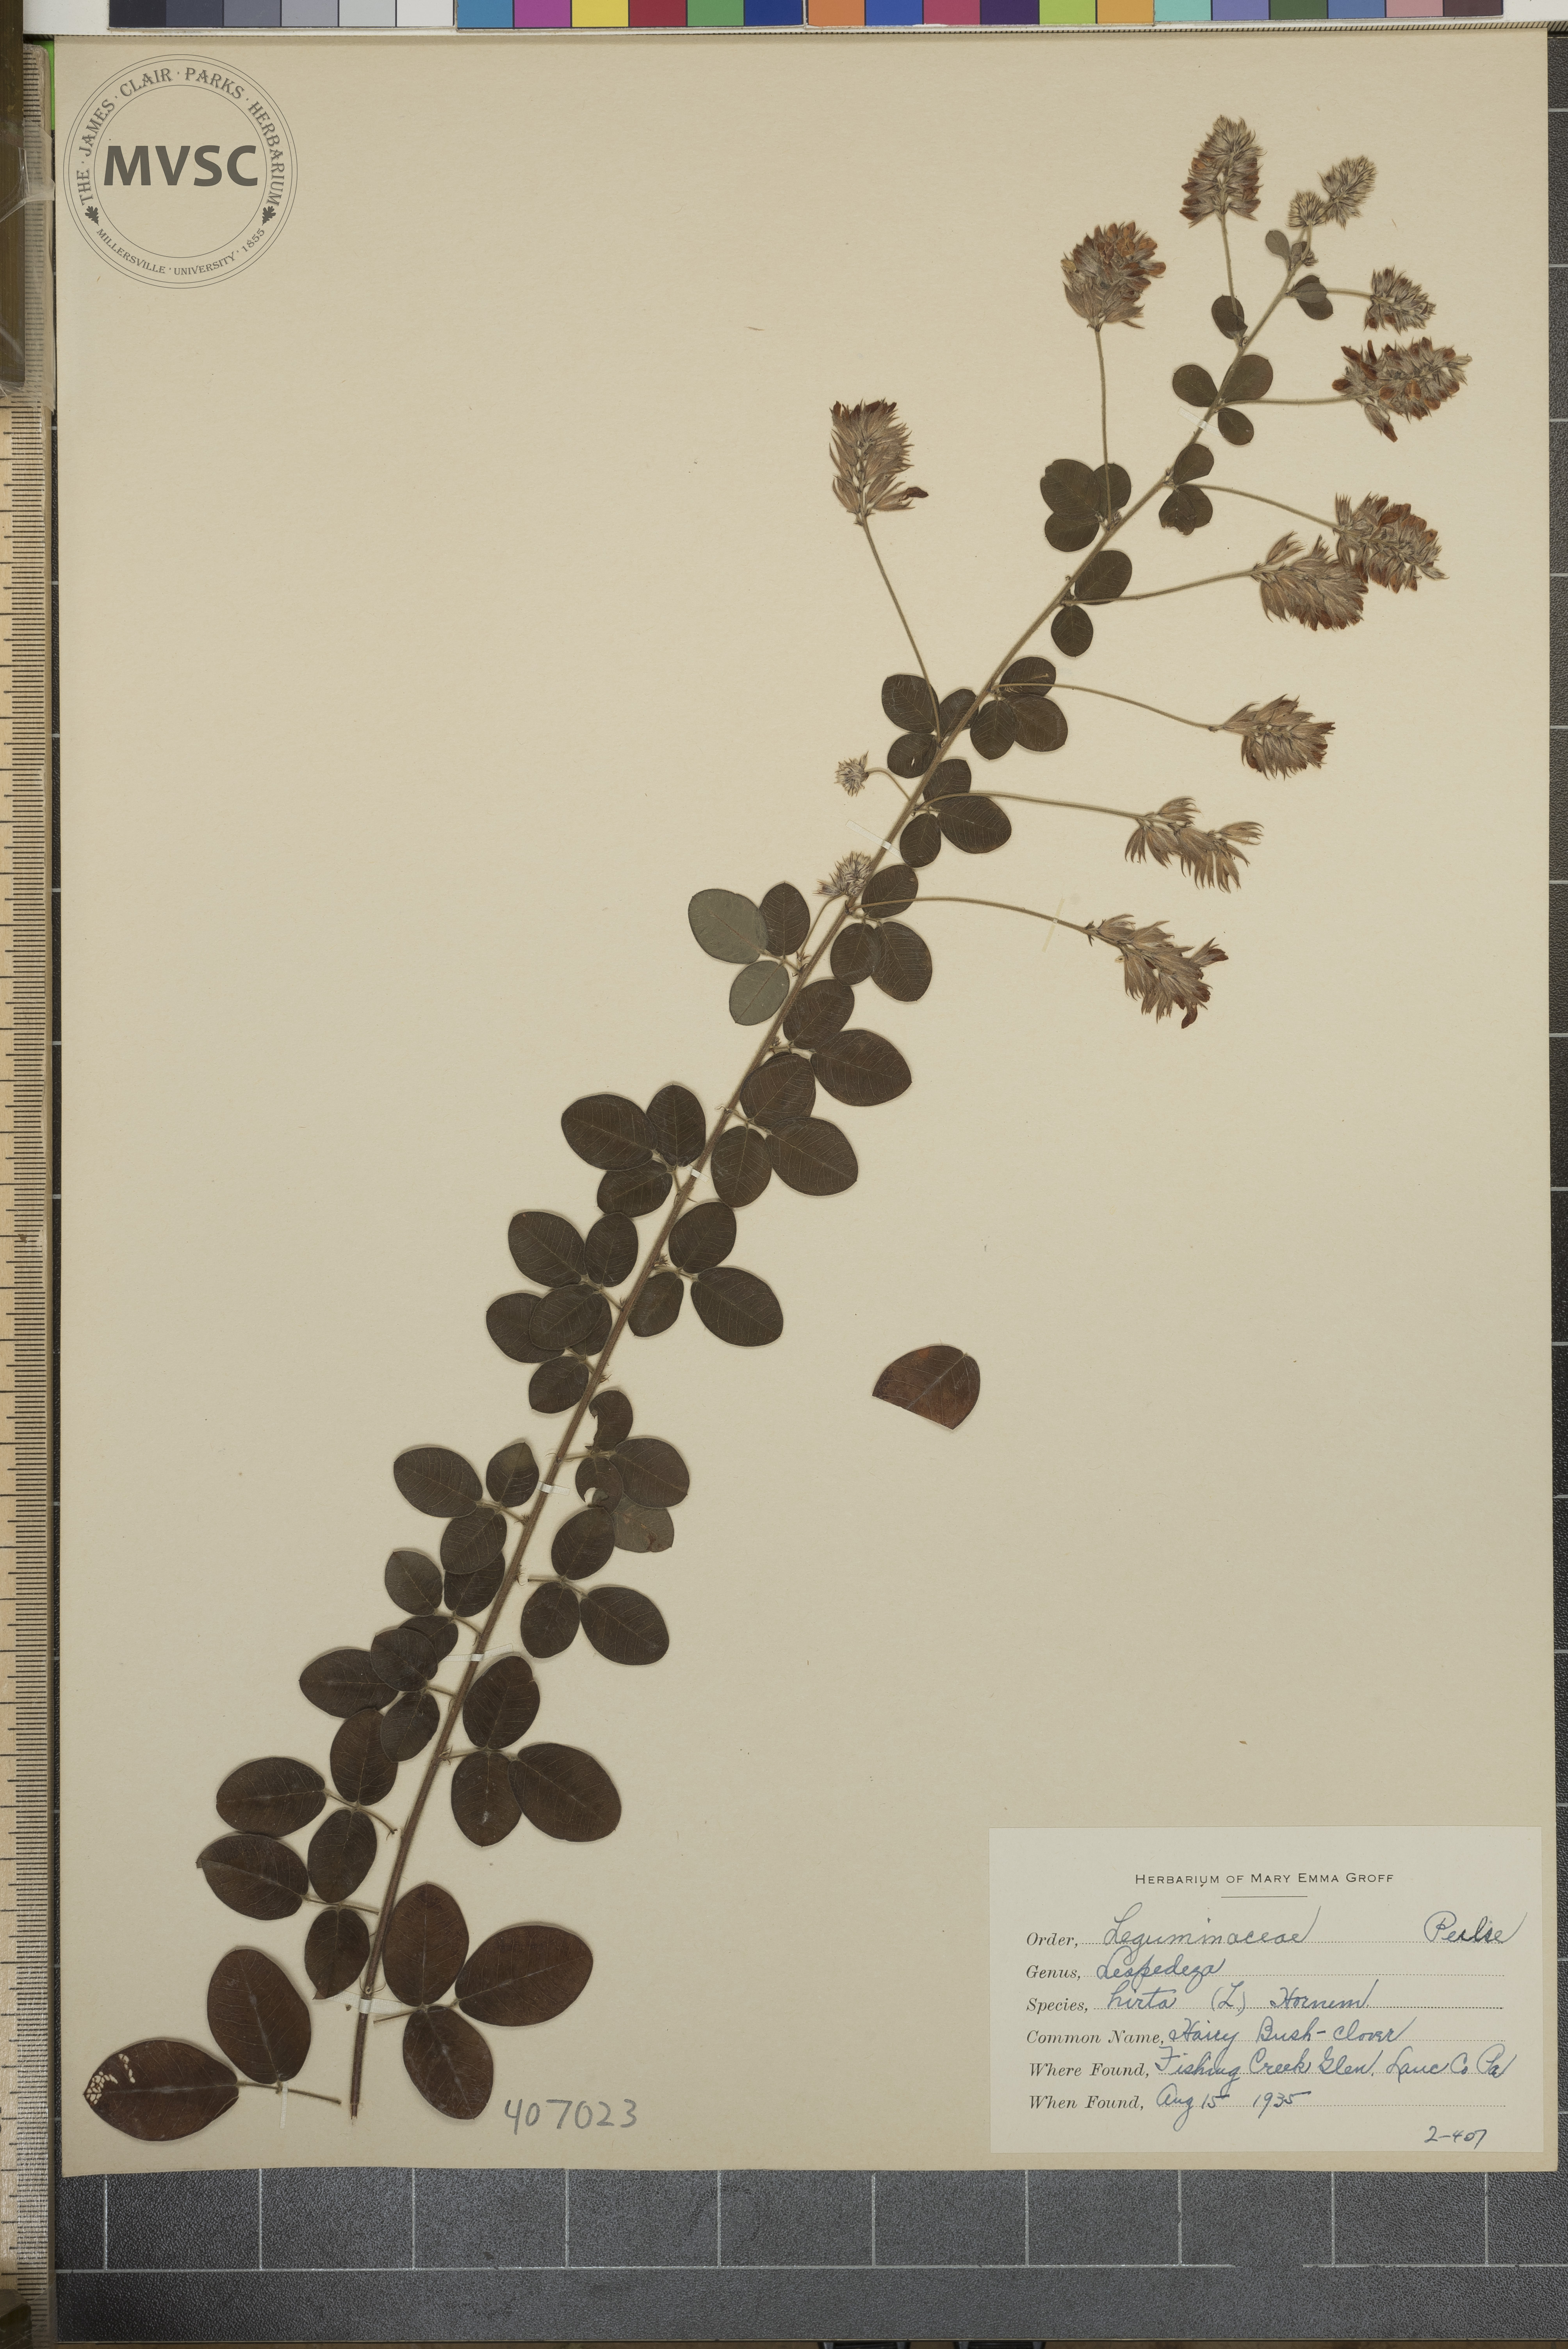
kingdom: Plantae
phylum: Tracheophyta
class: Magnoliopsida
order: Fabales
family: Fabaceae
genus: Lespedeza
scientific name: Lespedeza hirta
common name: Hairy Bush-clover
